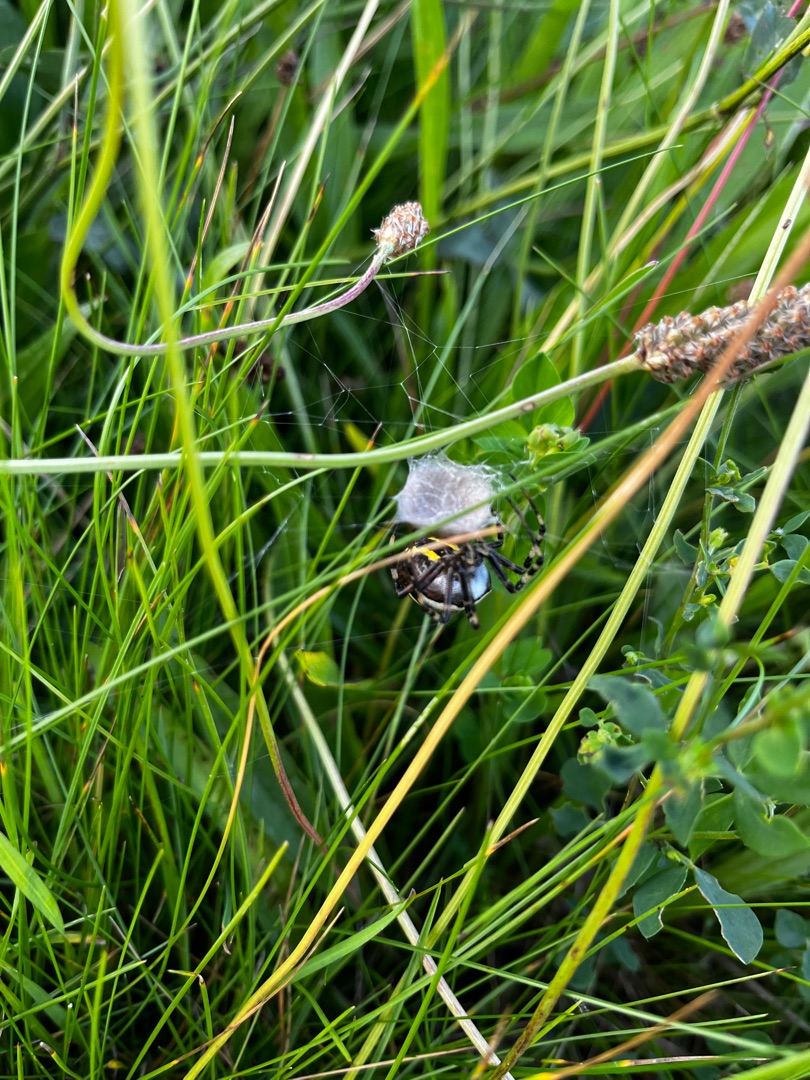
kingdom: Animalia
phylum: Arthropoda
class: Arachnida
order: Araneae
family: Araneidae
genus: Argiope
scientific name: Argiope bruennichi
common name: Hvepseedderkop
